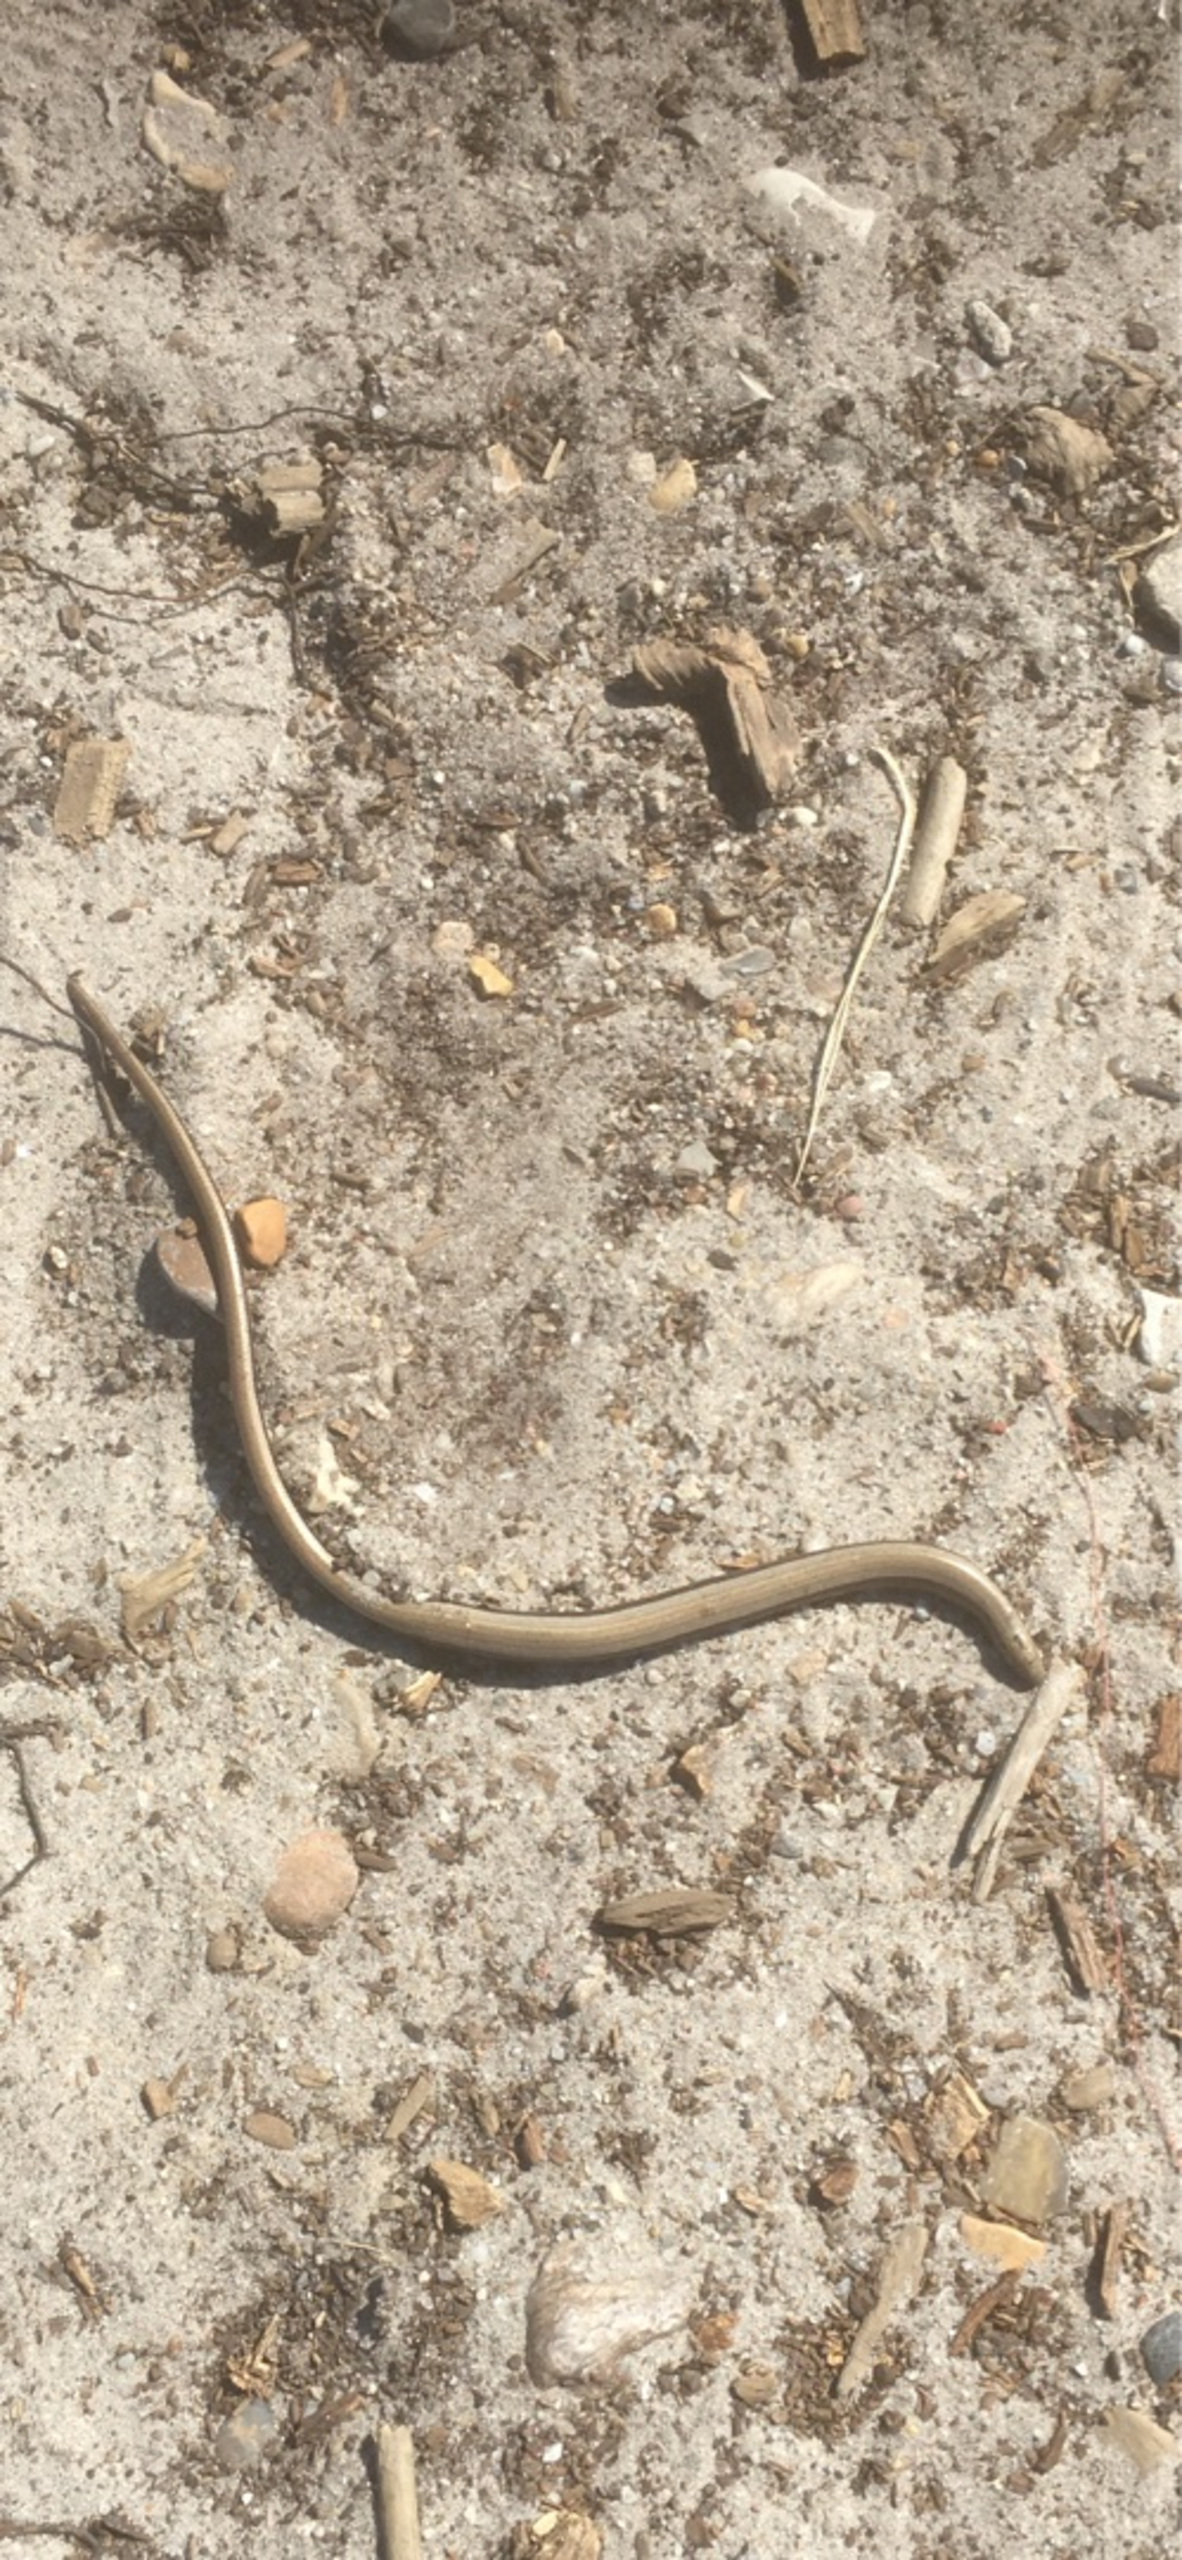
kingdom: Animalia
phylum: Chordata
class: Squamata
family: Anguidae
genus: Anguis
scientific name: Anguis fragilis
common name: Stålorm
